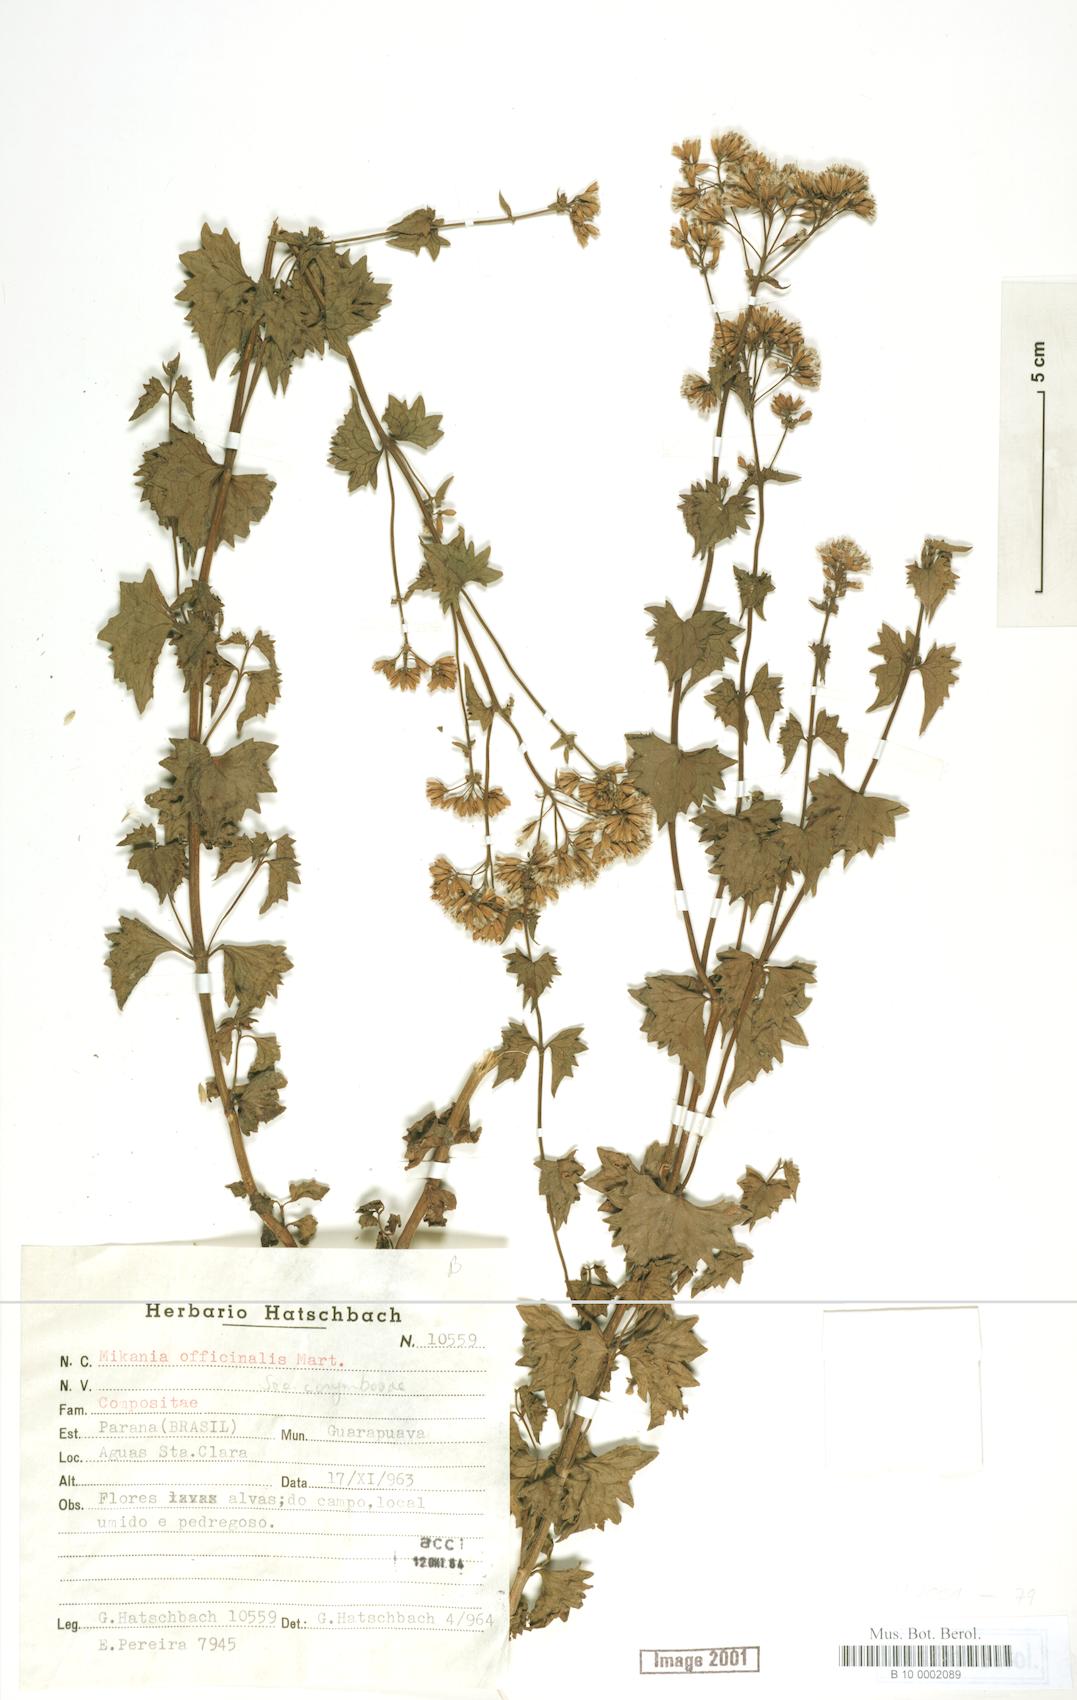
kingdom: Plantae
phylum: Tracheophyta
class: Magnoliopsida
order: Asterales
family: Asteraceae
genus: Mikania
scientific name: Mikania officinalis
